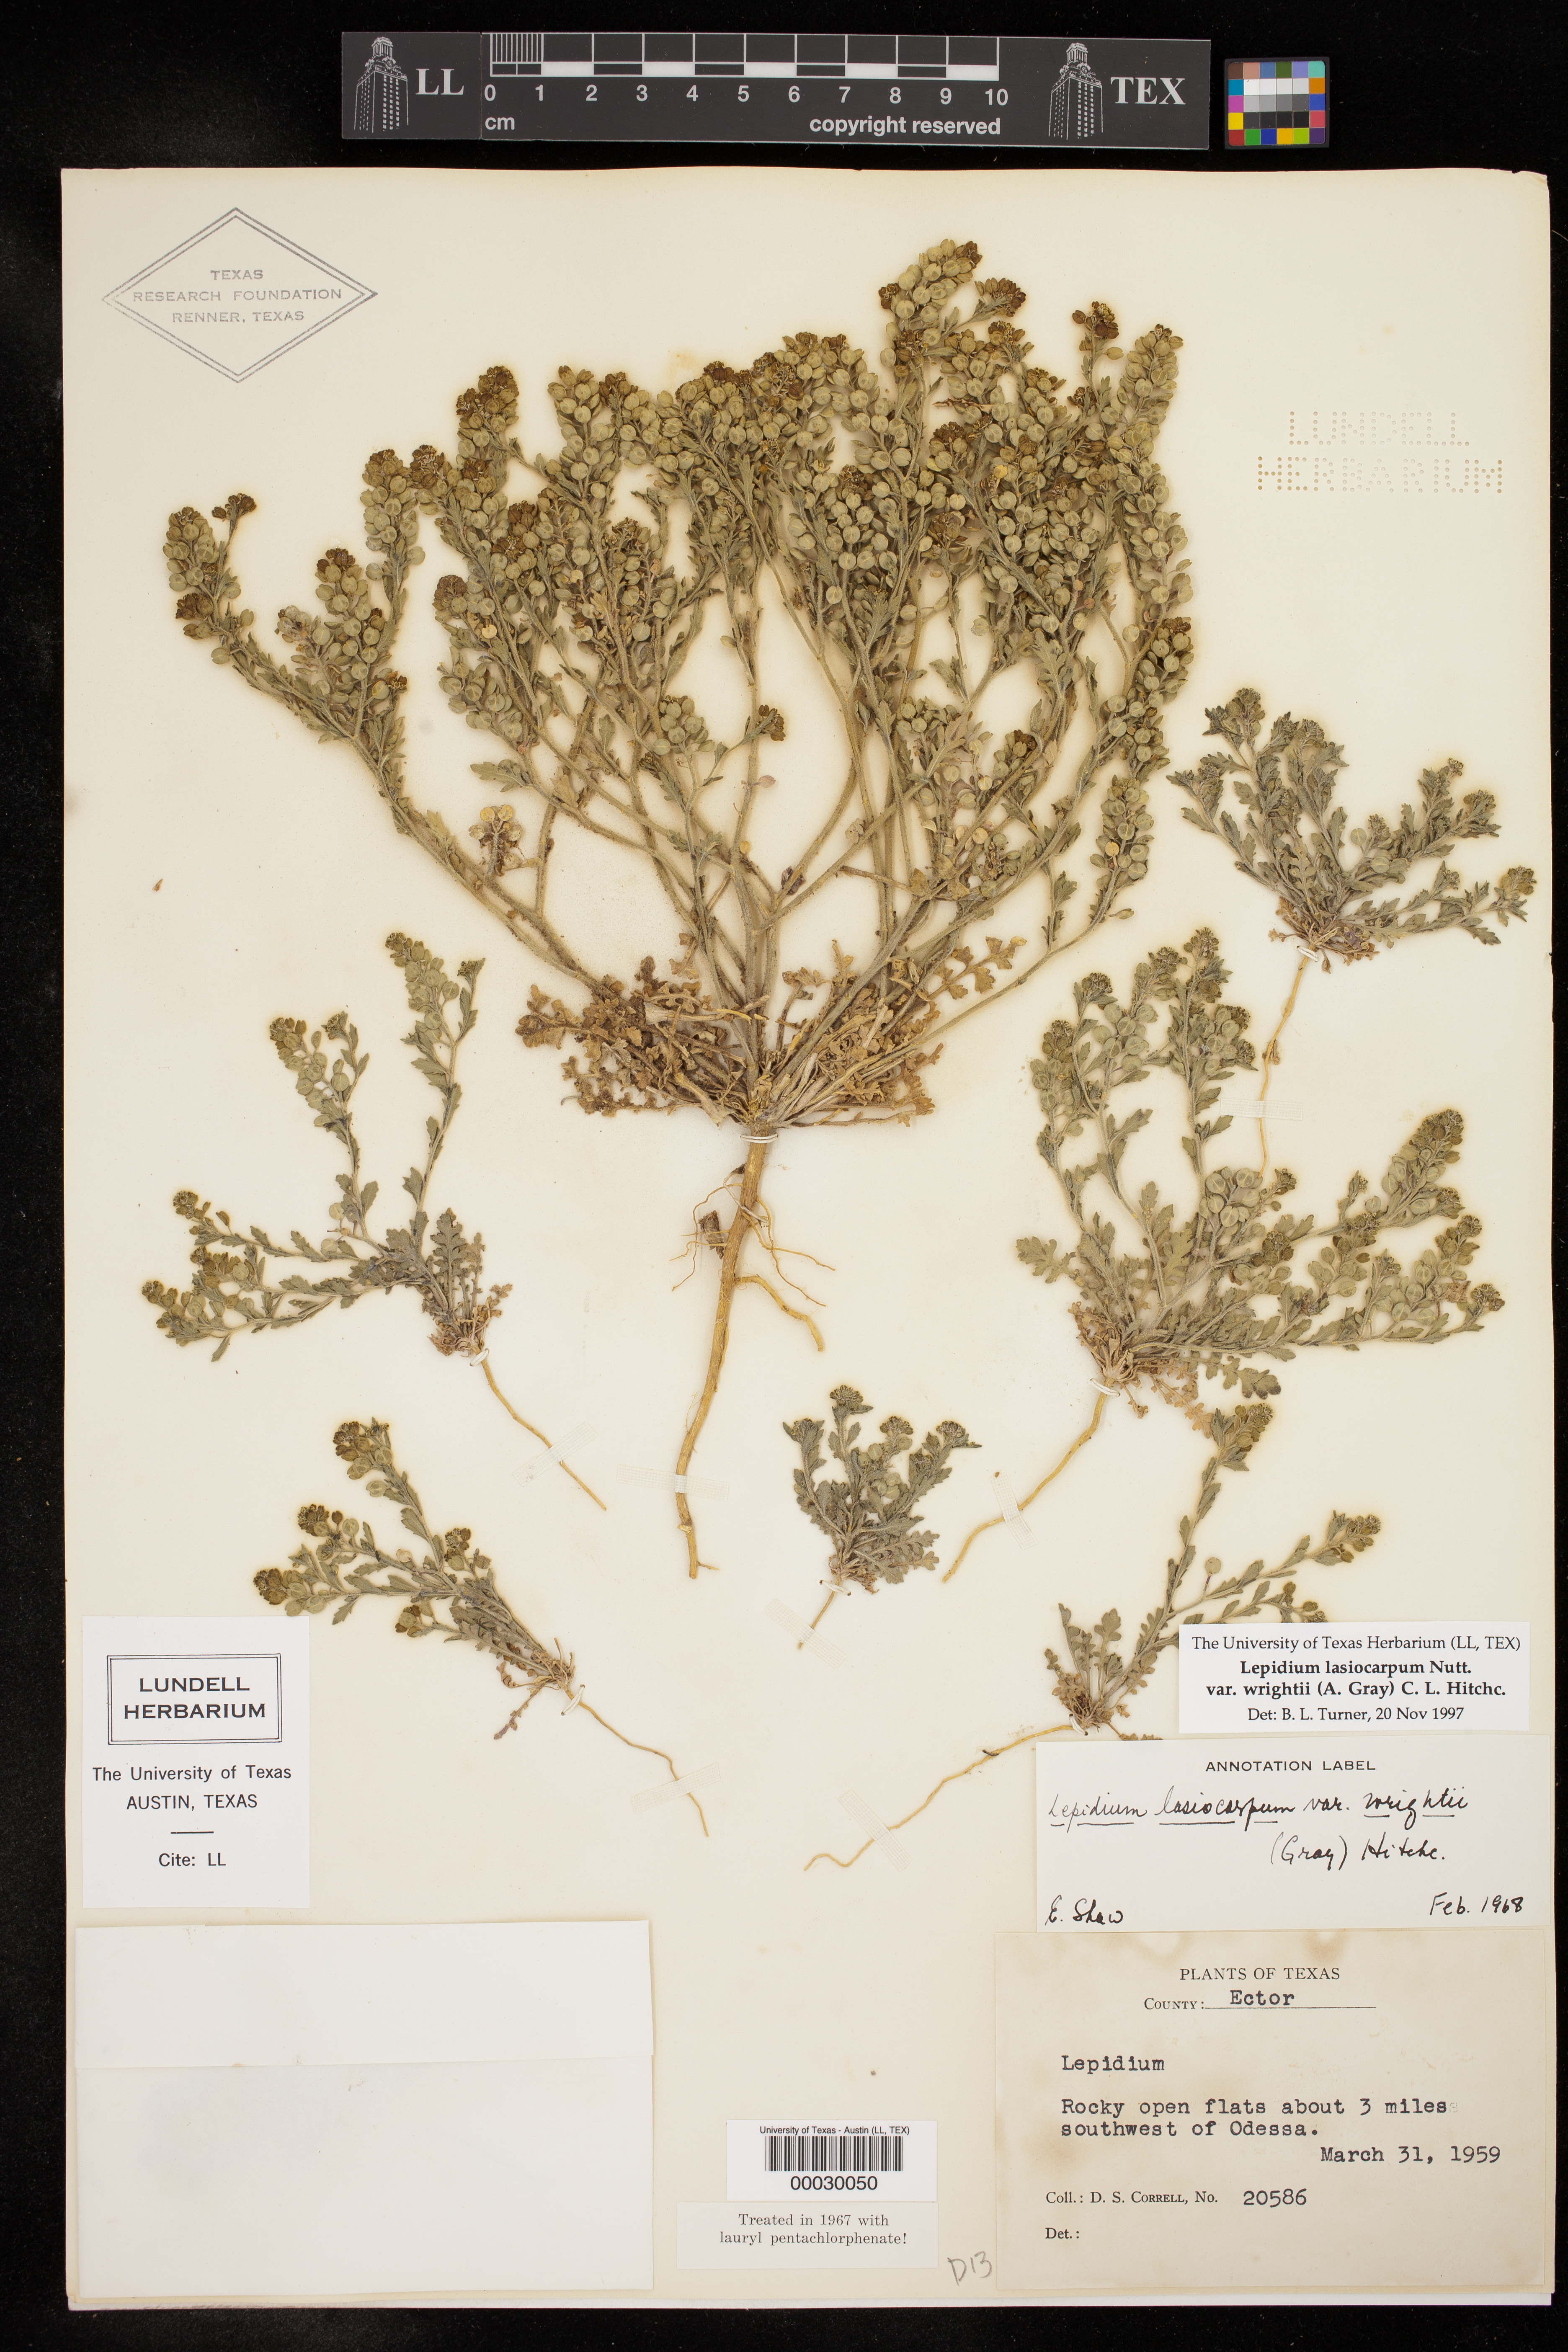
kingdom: Plantae
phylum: Tracheophyta
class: Magnoliopsida
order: Brassicales
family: Brassicaceae
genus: Lepidium
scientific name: Lepidium lasiocarpum
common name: Hairy-pod pepperwort
